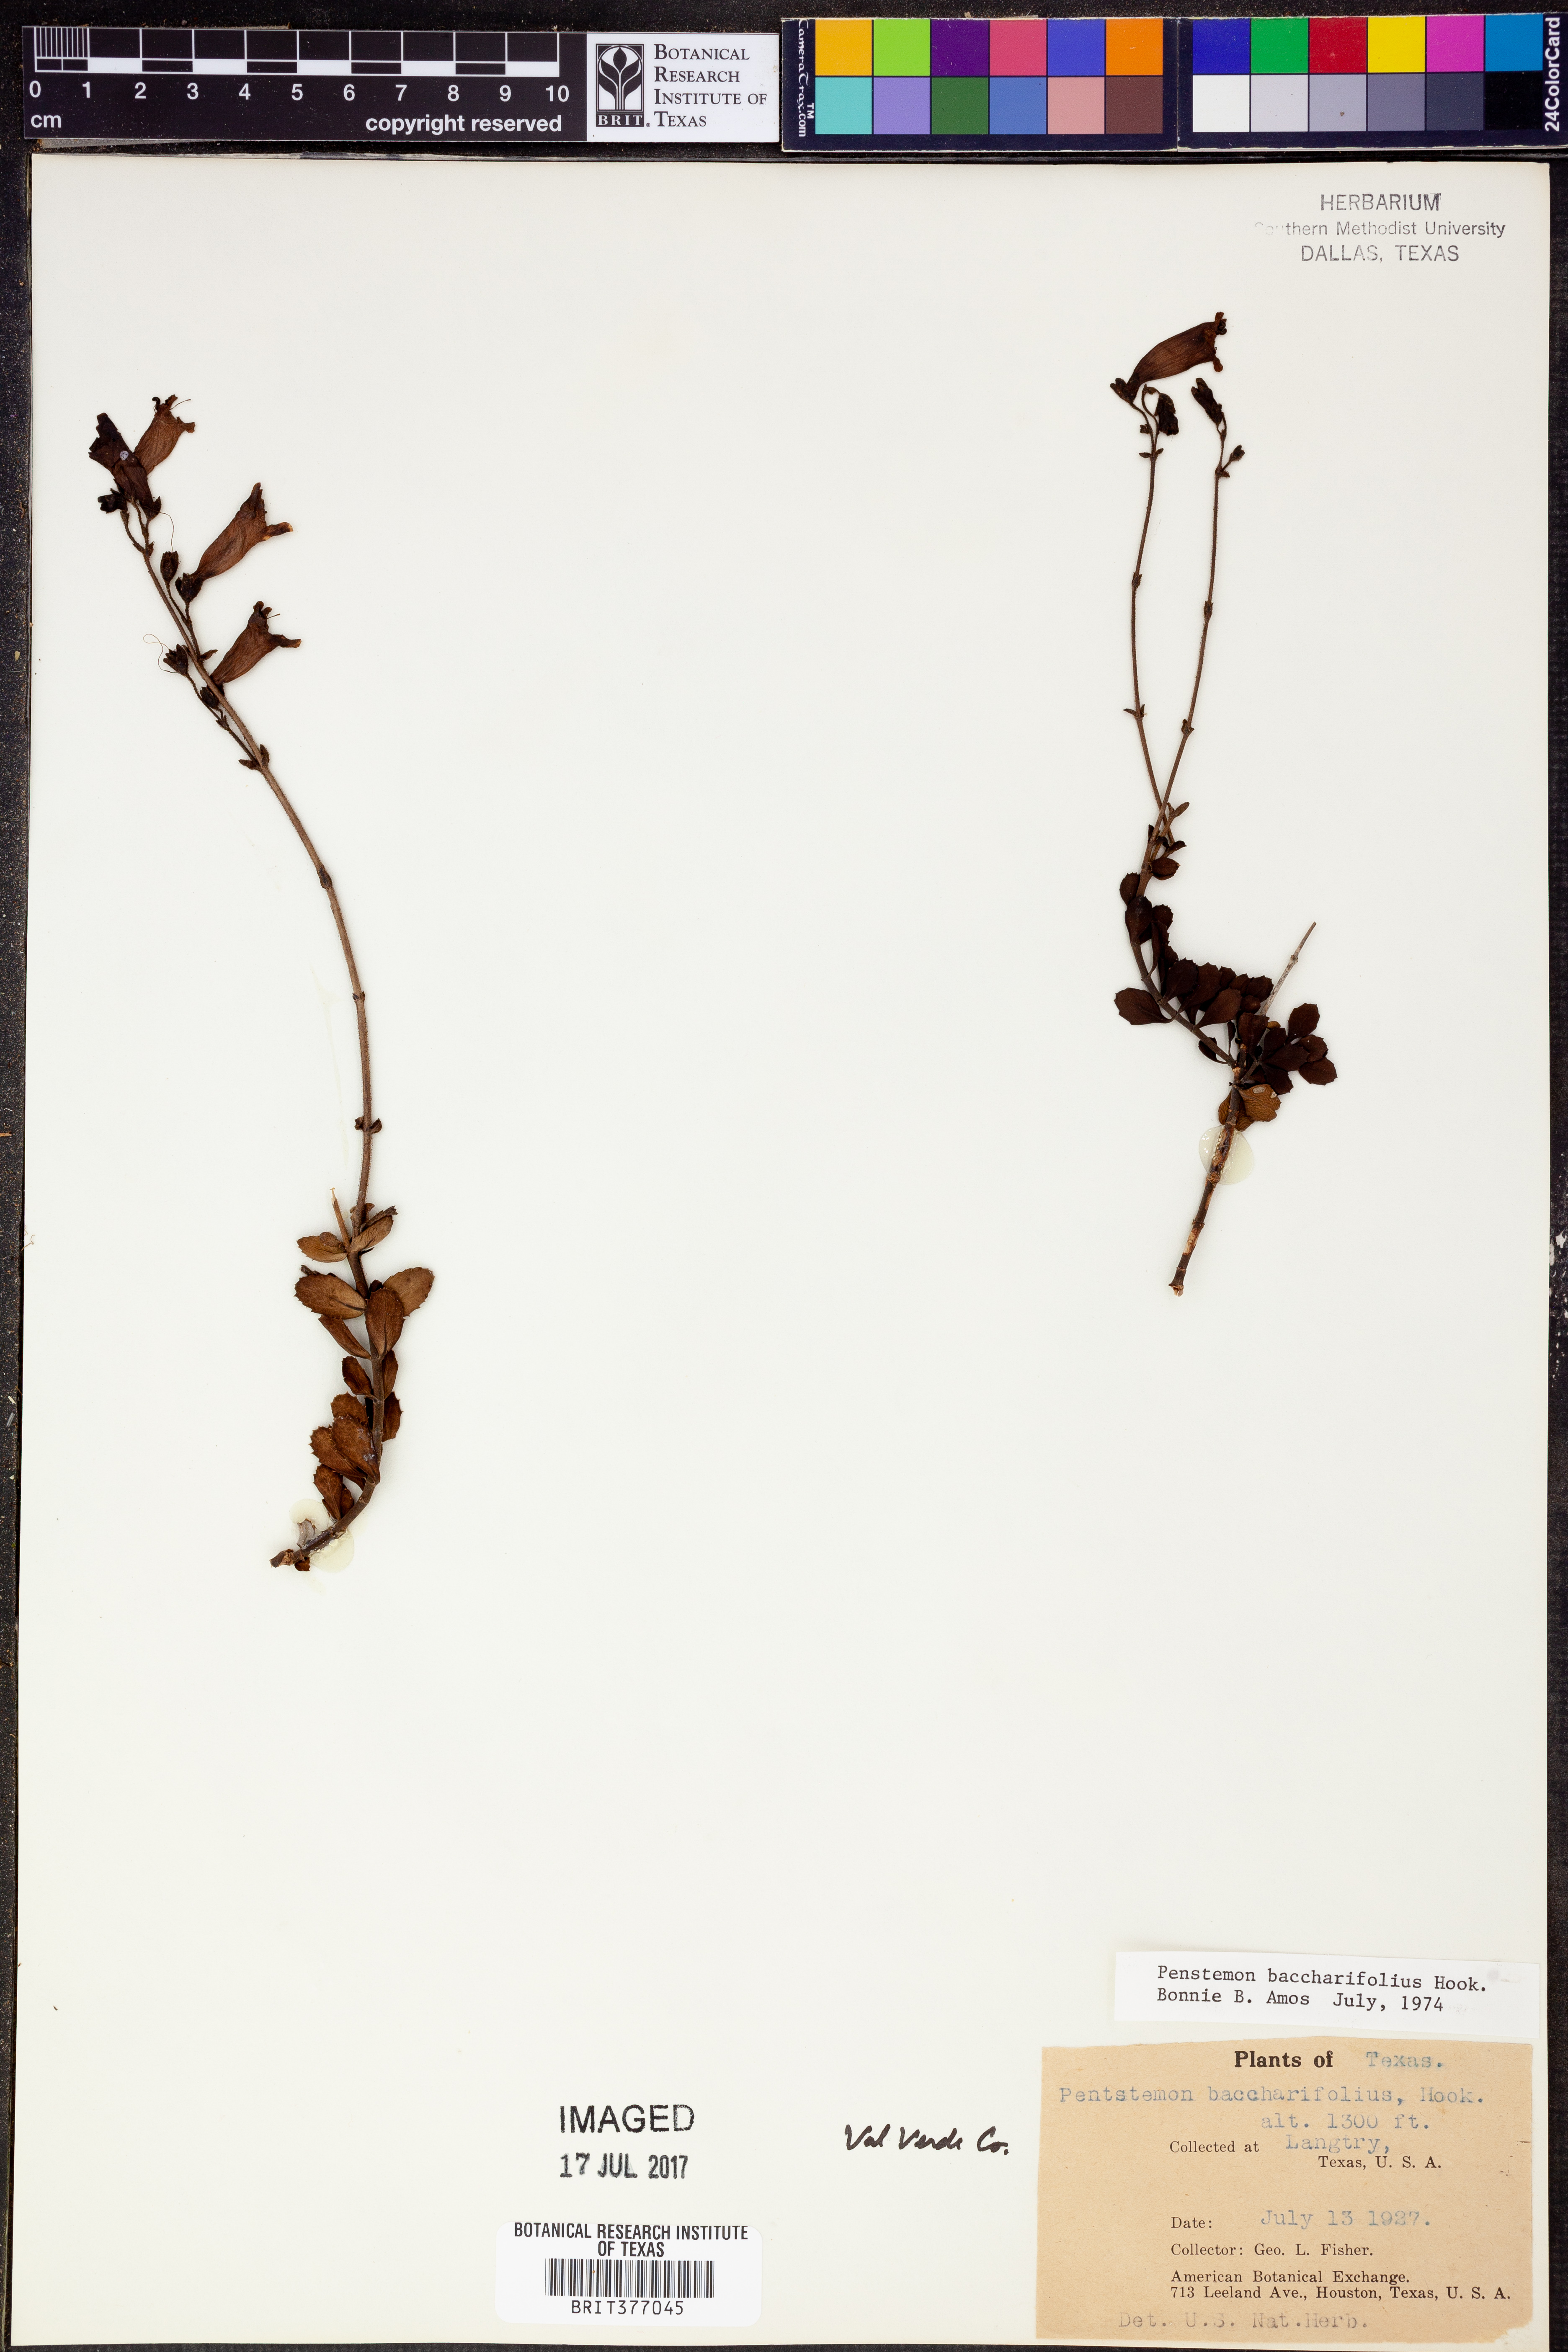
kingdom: Plantae
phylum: Tracheophyta
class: Magnoliopsida
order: Lamiales
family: Plantaginaceae
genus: Penstemon
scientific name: Penstemon baccharifolius
